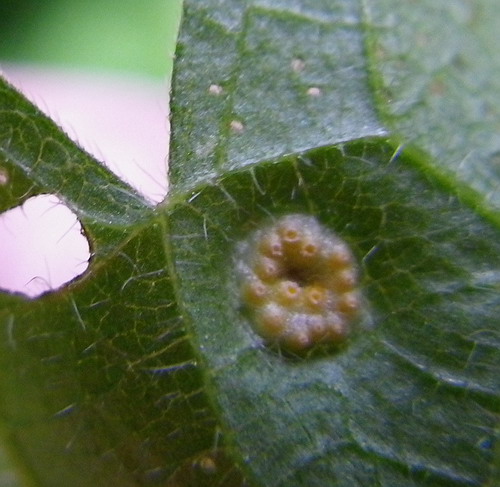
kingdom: Fungi
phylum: Basidiomycota
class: Pucciniomycetes
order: Pucciniales
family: Pucciniaceae
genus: Puccinia
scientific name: Puccinia urticata
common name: nældegalle-tvecellerust
